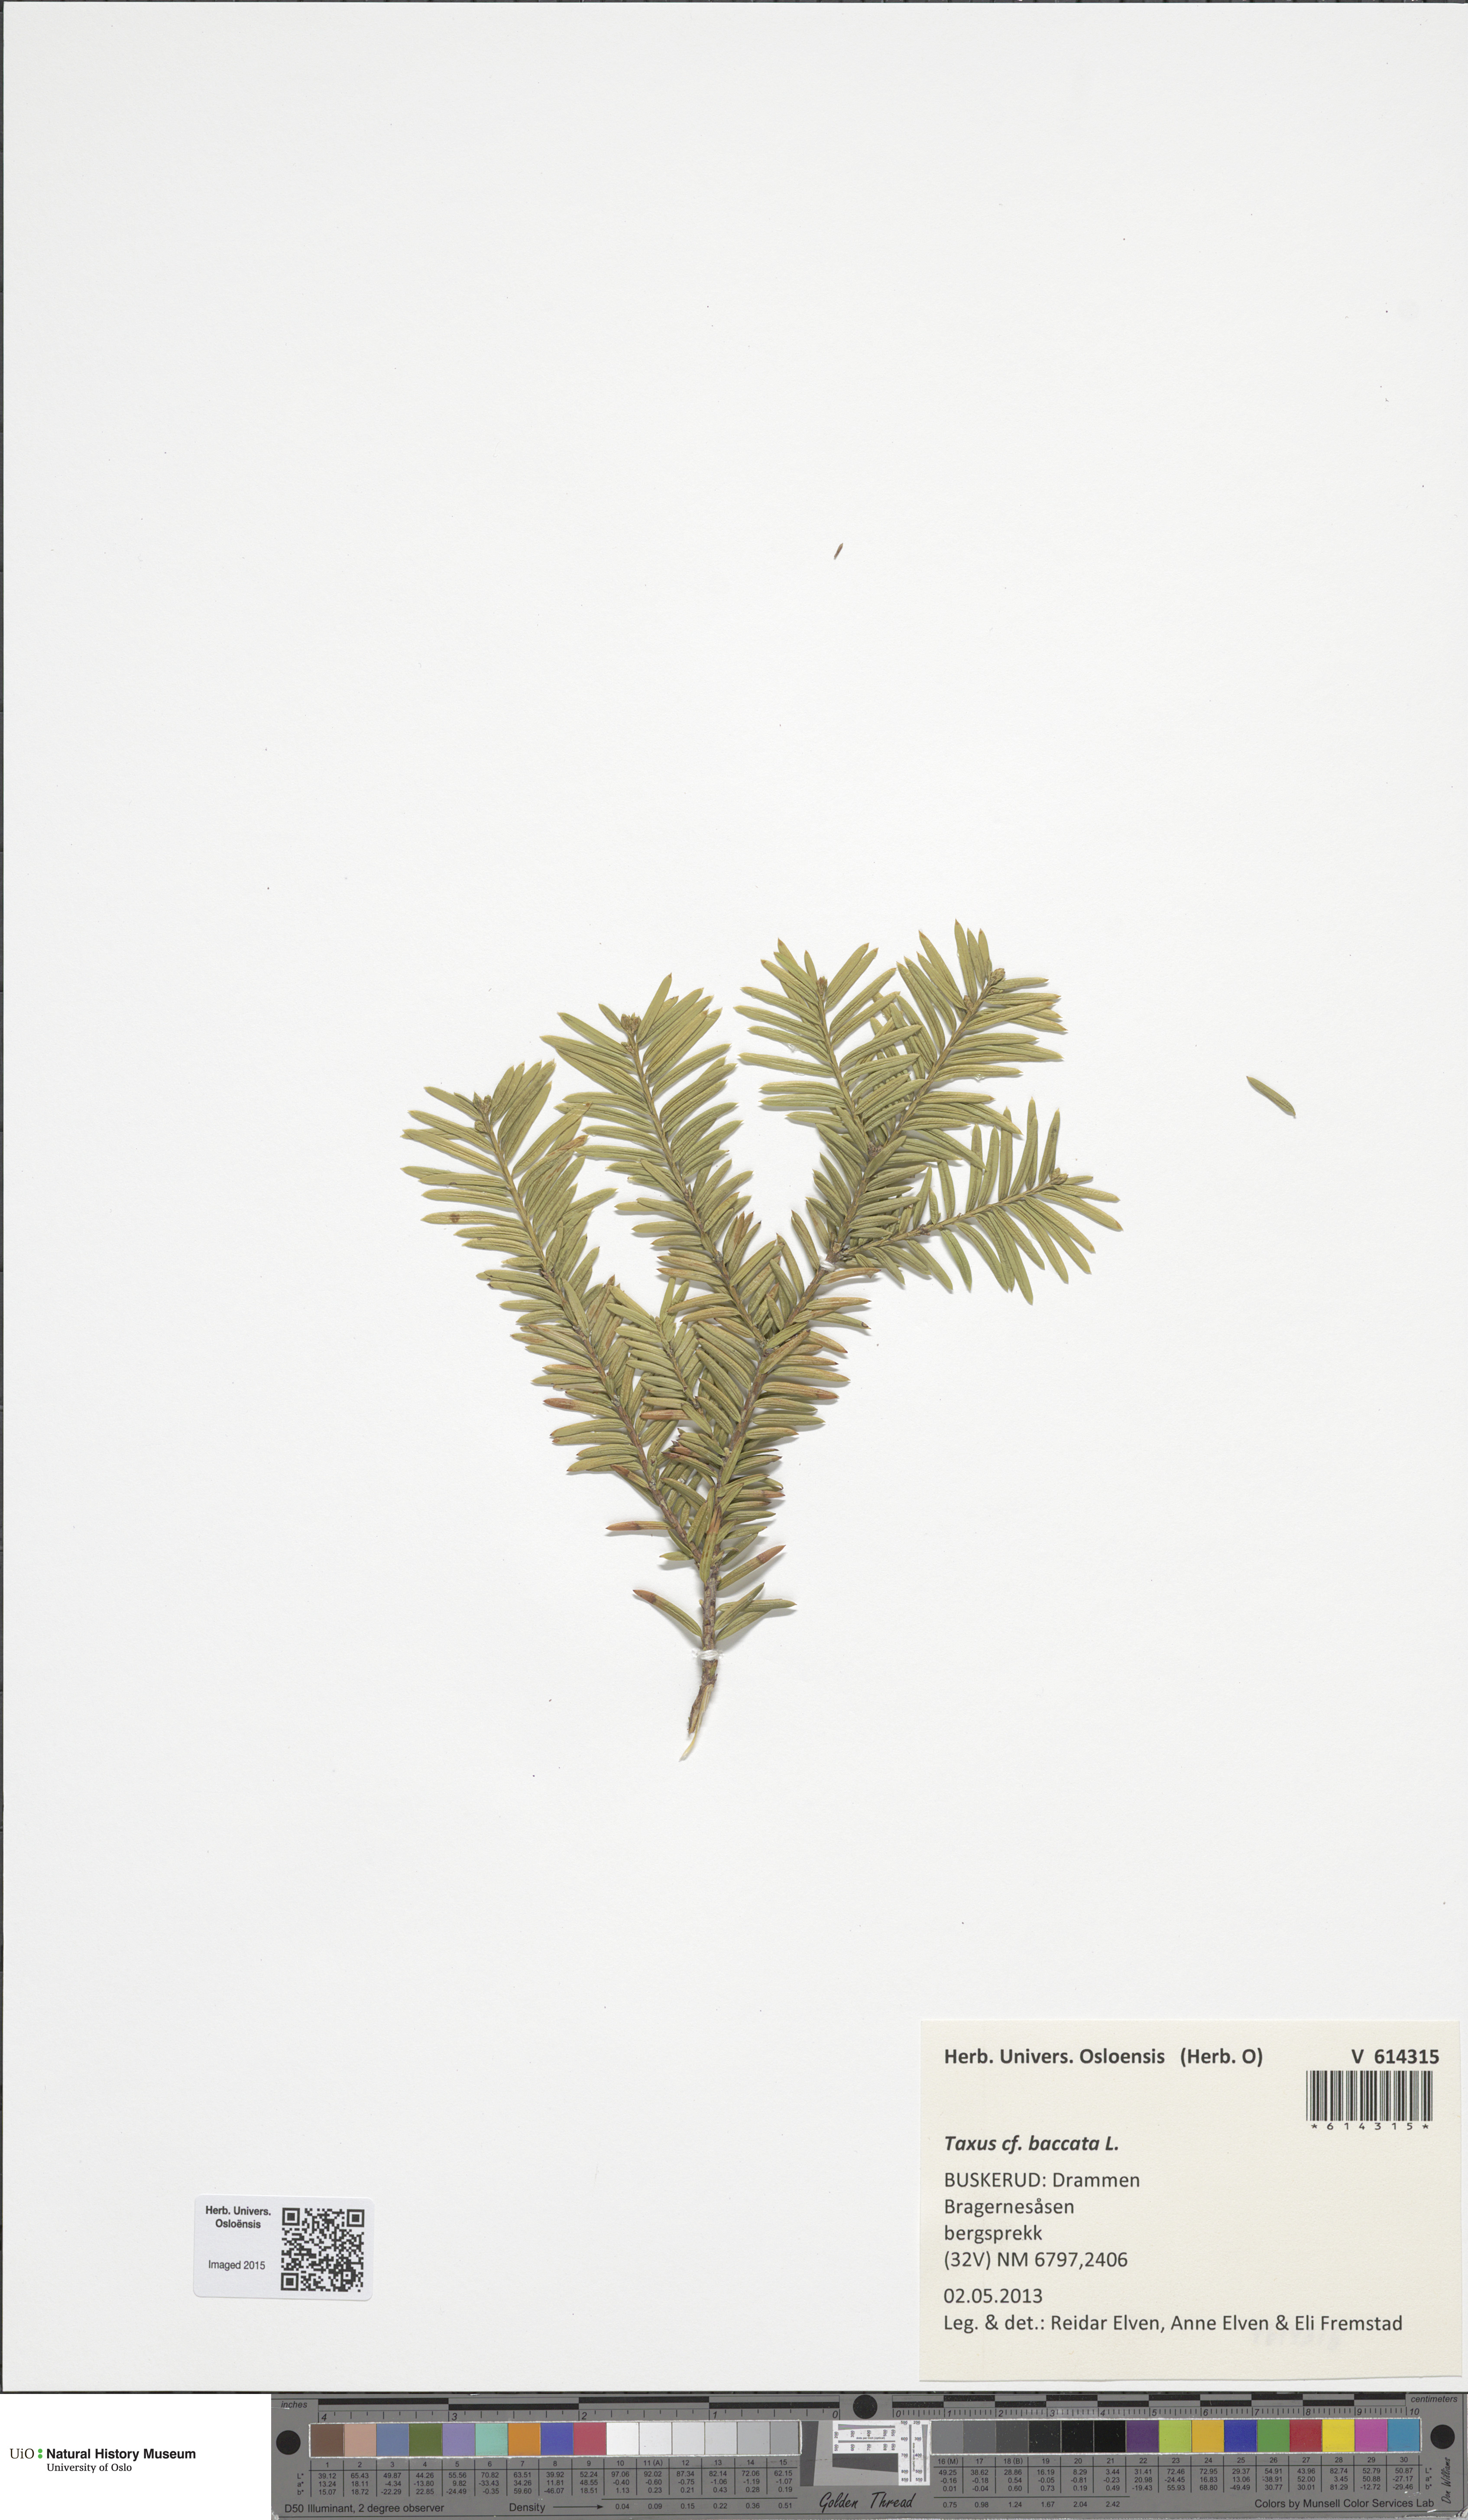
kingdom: Plantae
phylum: Tracheophyta
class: Pinopsida
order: Pinales
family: Taxaceae
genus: Taxus
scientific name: Taxus media
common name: Hybrid yew
